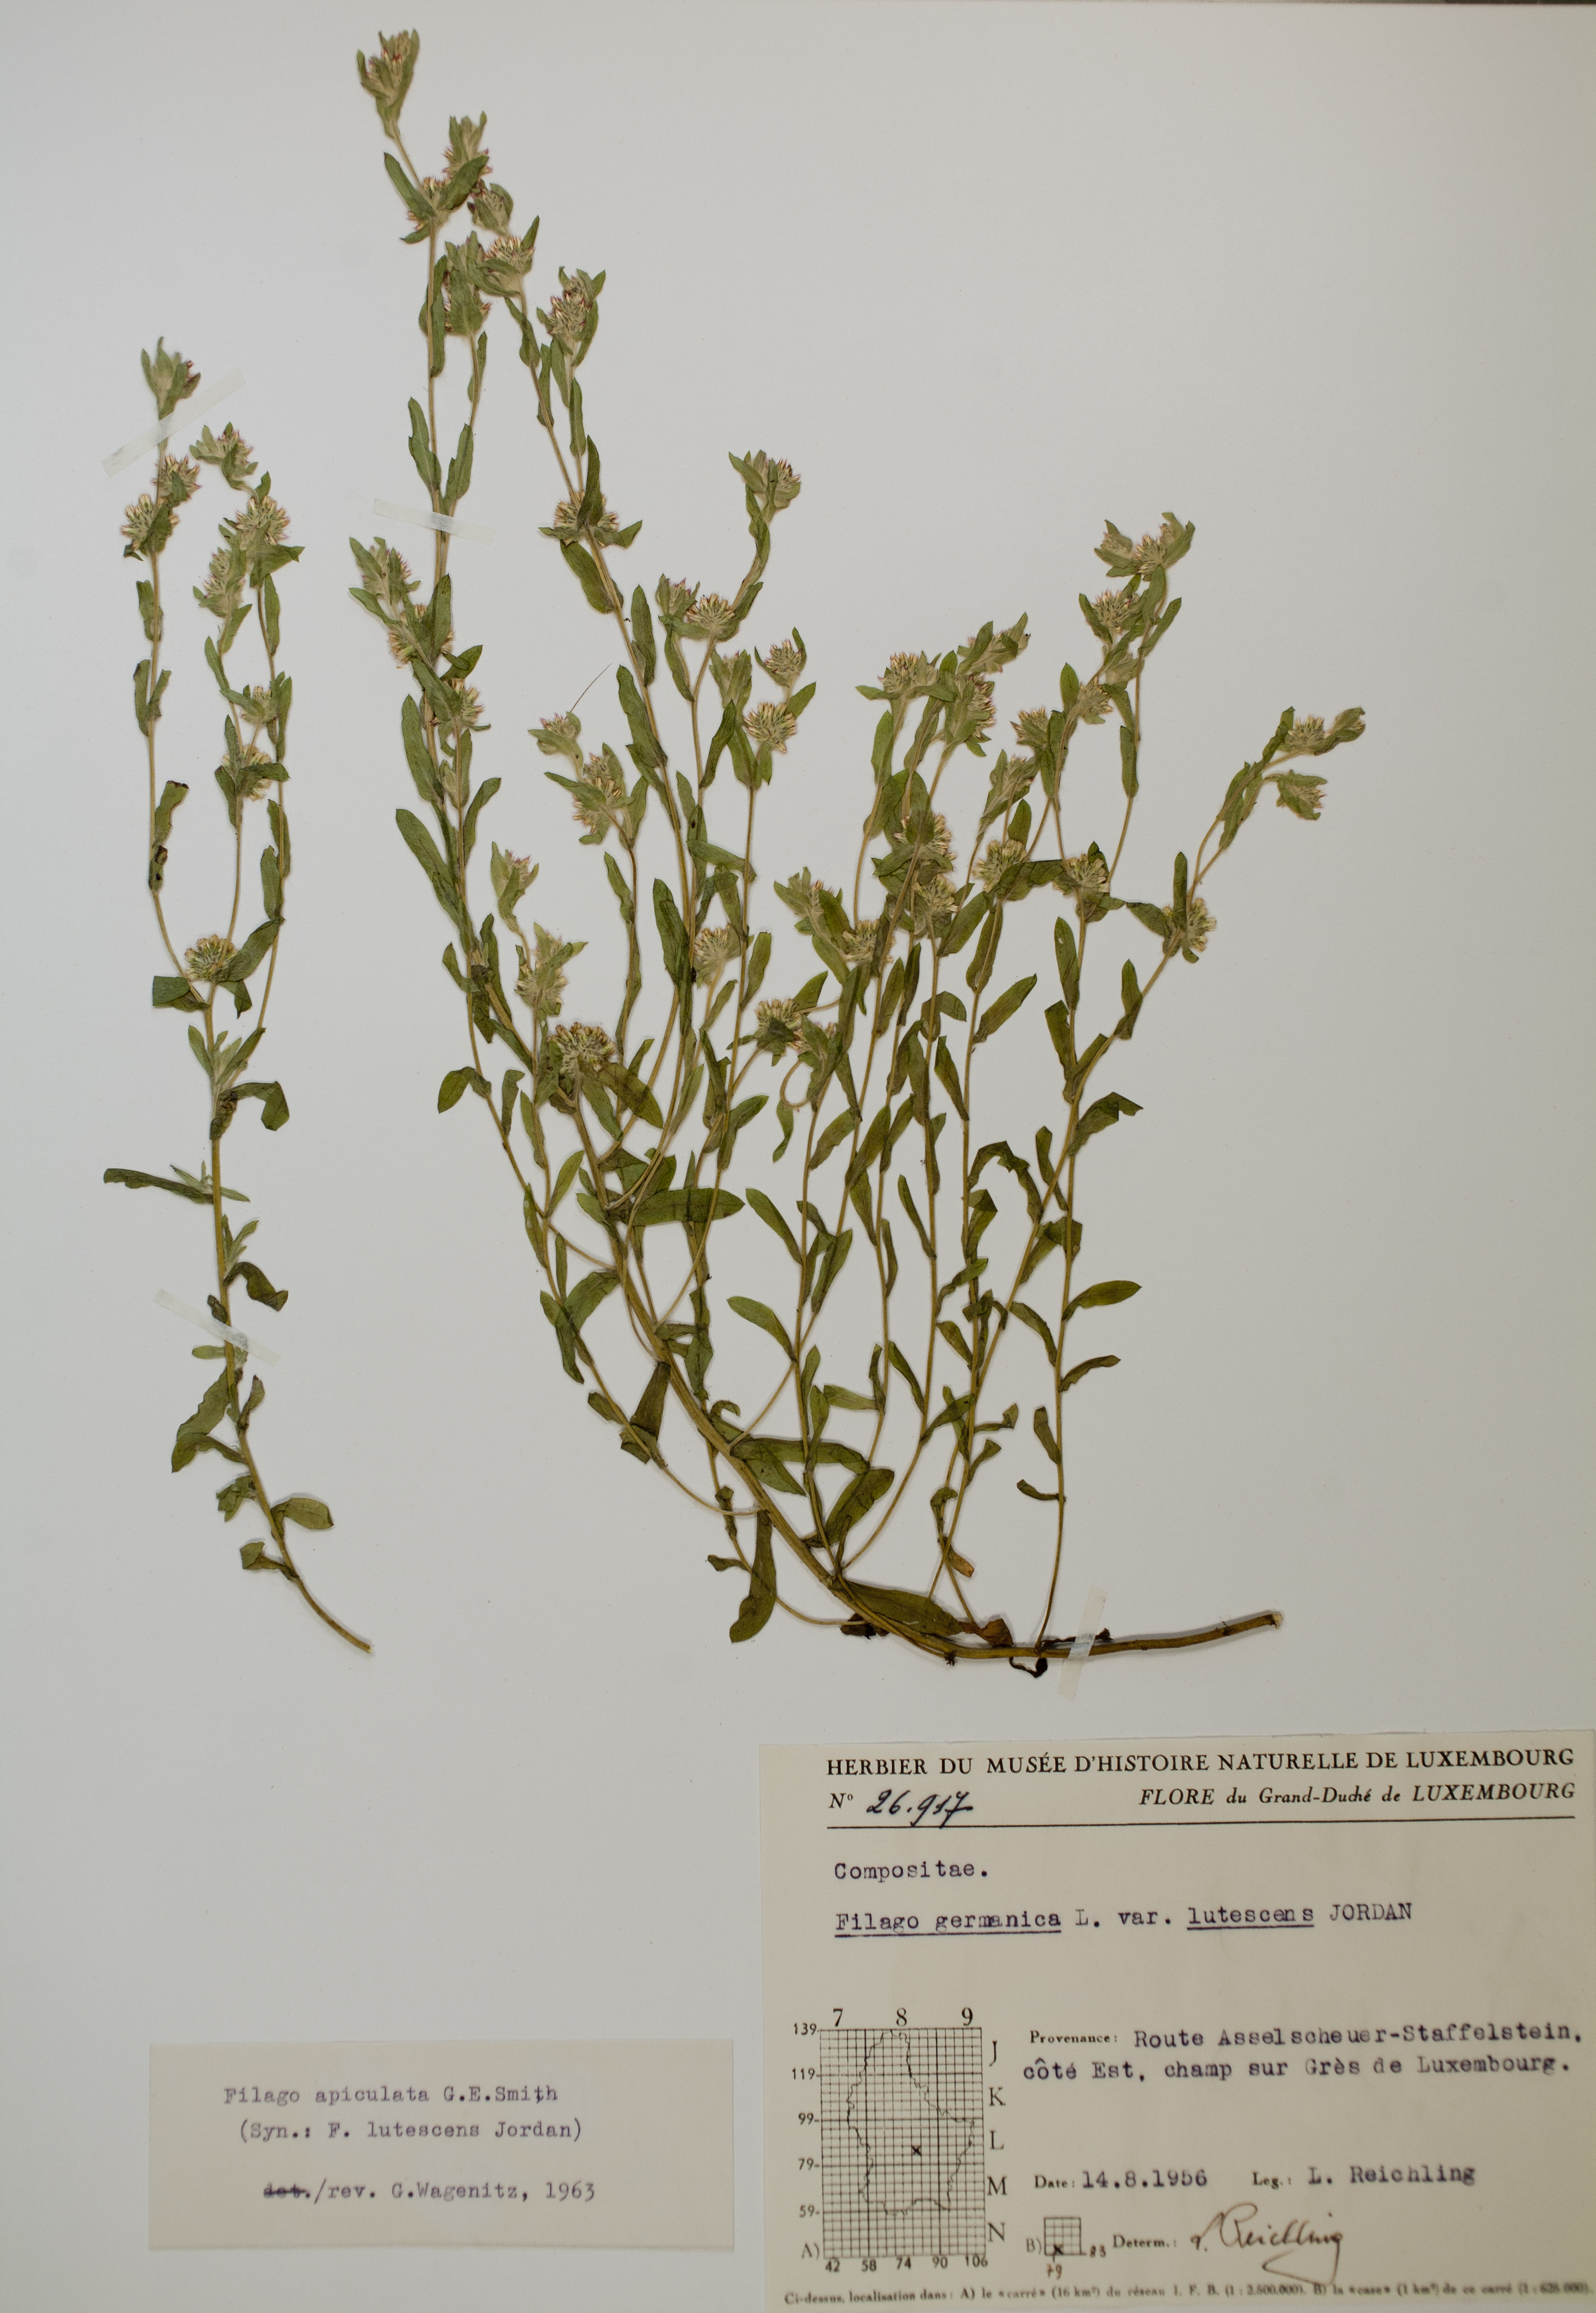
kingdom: Plantae
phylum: Tracheophyta
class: Magnoliopsida
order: Asterales
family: Asteraceae
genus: Filago
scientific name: Filago lutescens
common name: Red-tipped cudweed
